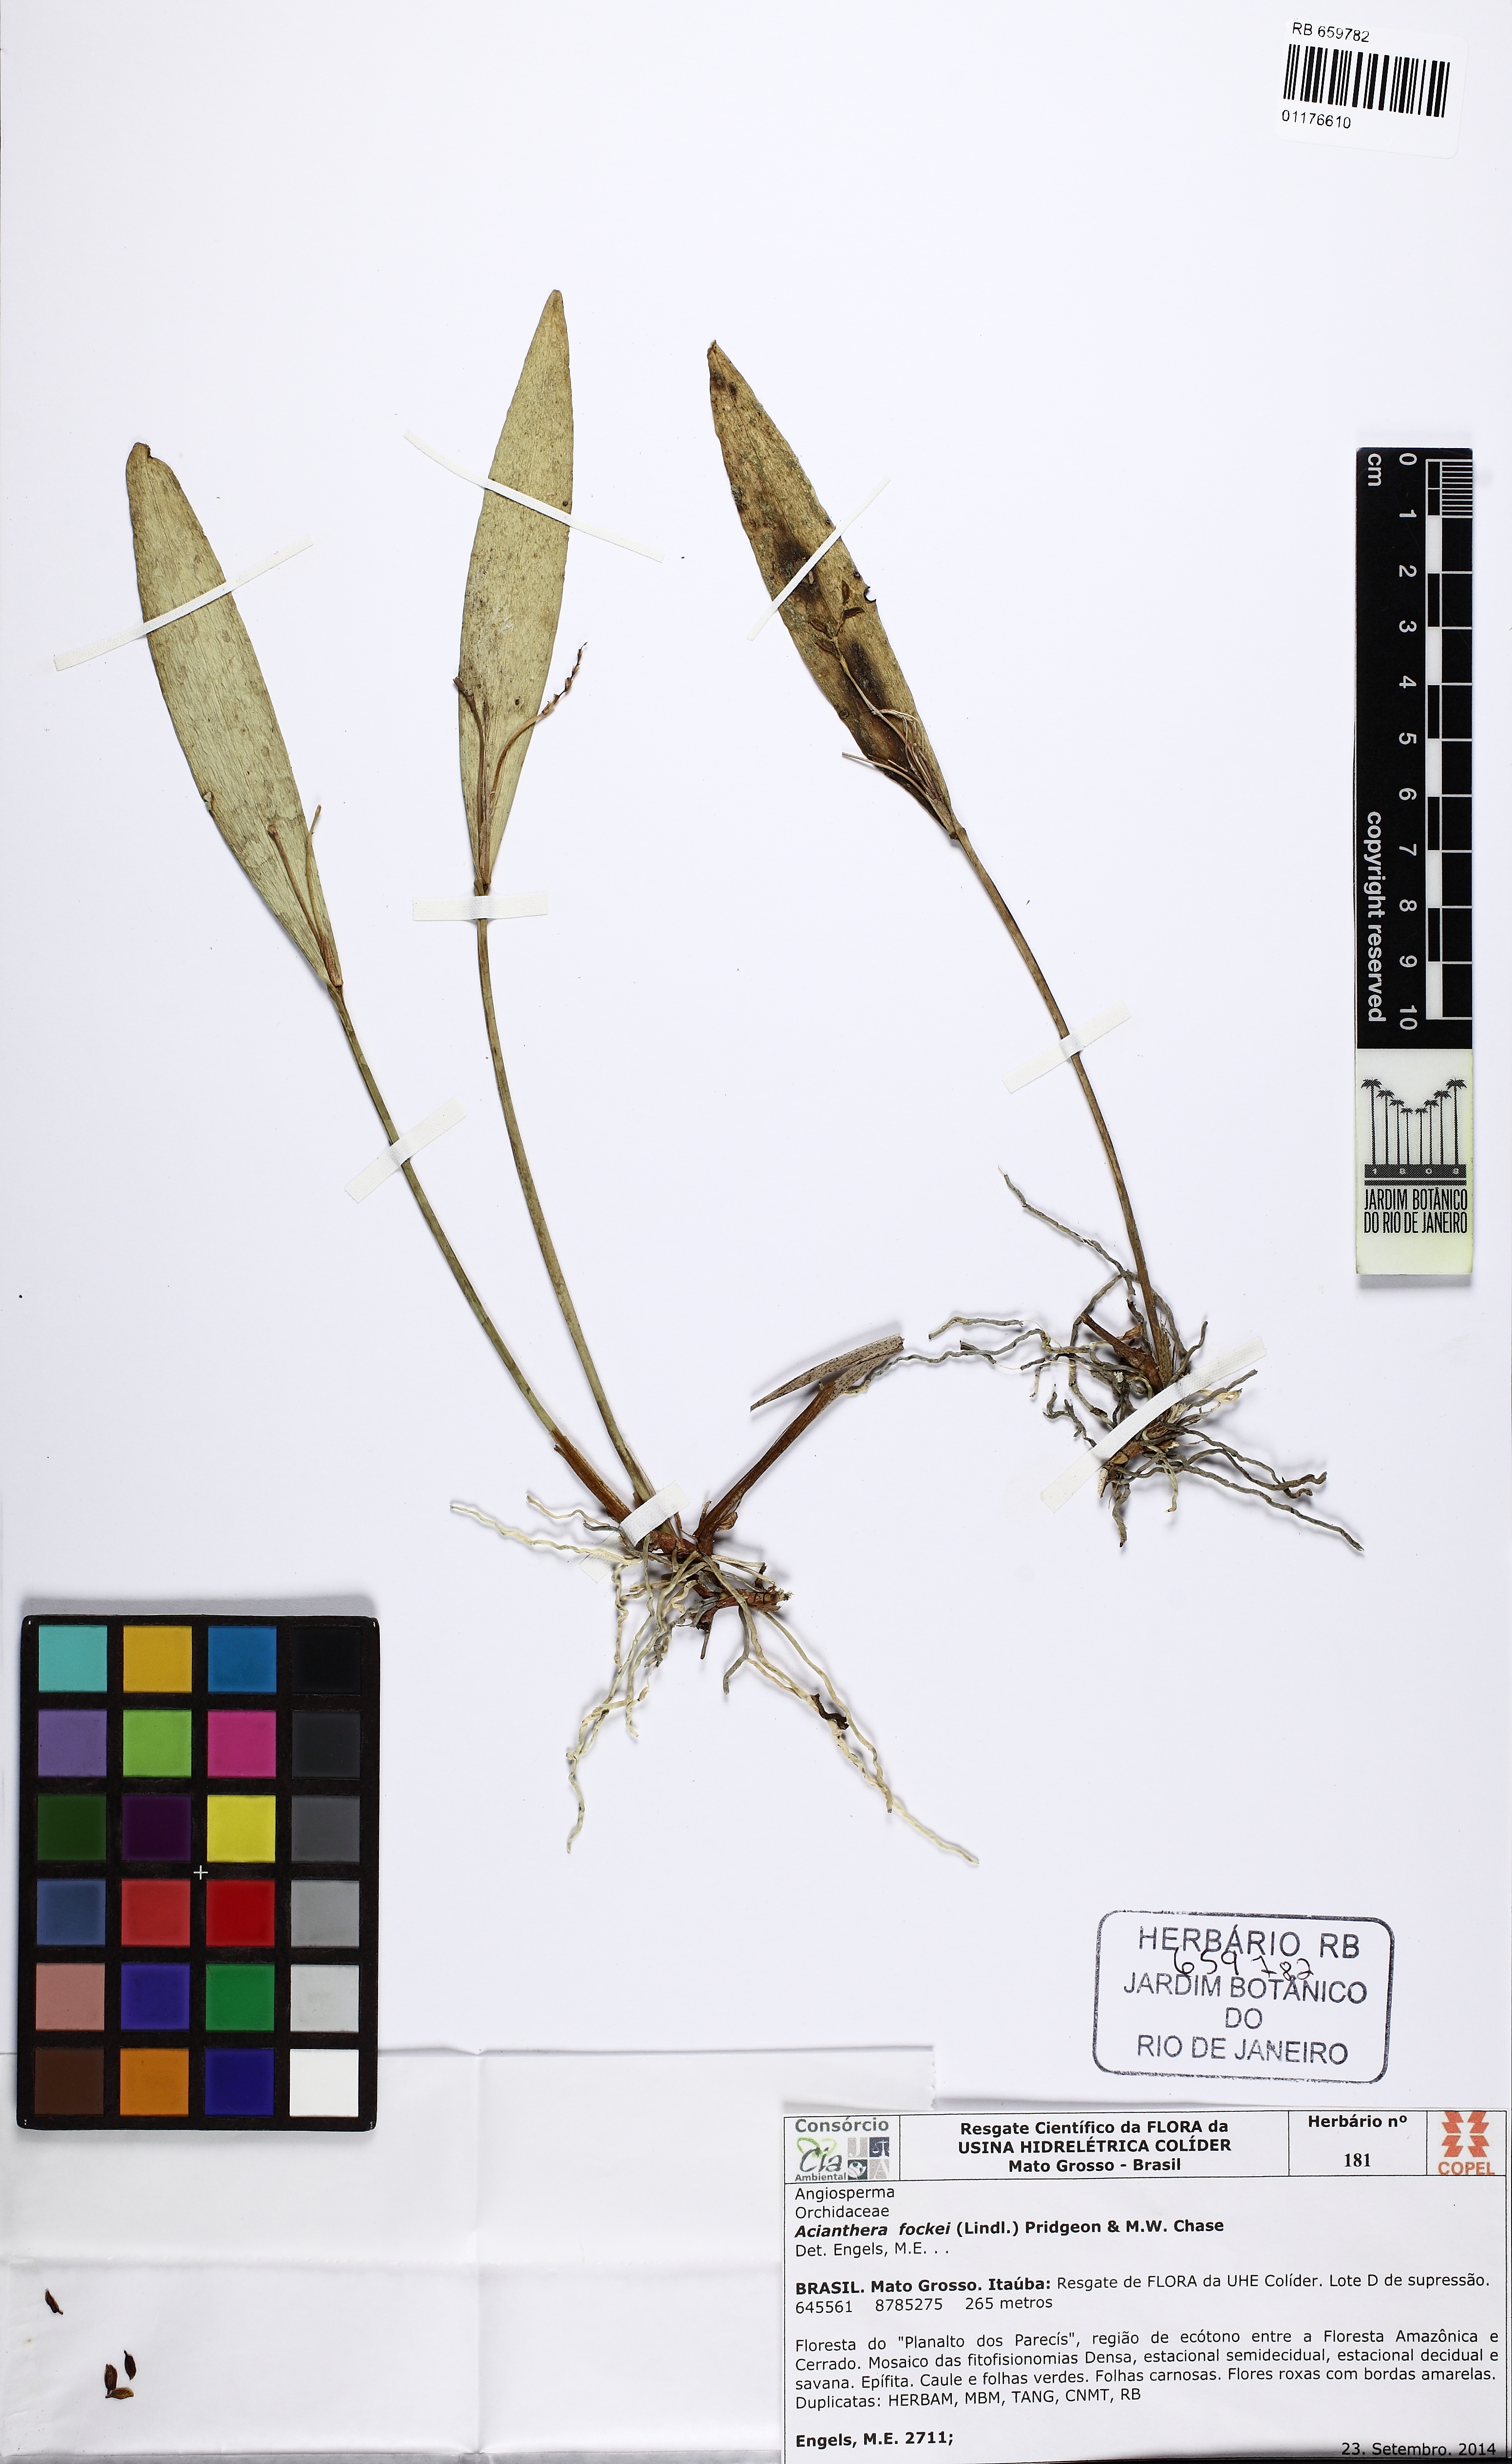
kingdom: Plantae
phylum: Tracheophyta
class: Liliopsida
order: Asparagales
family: Orchidaceae
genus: Acianthera
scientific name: Acianthera fockei
